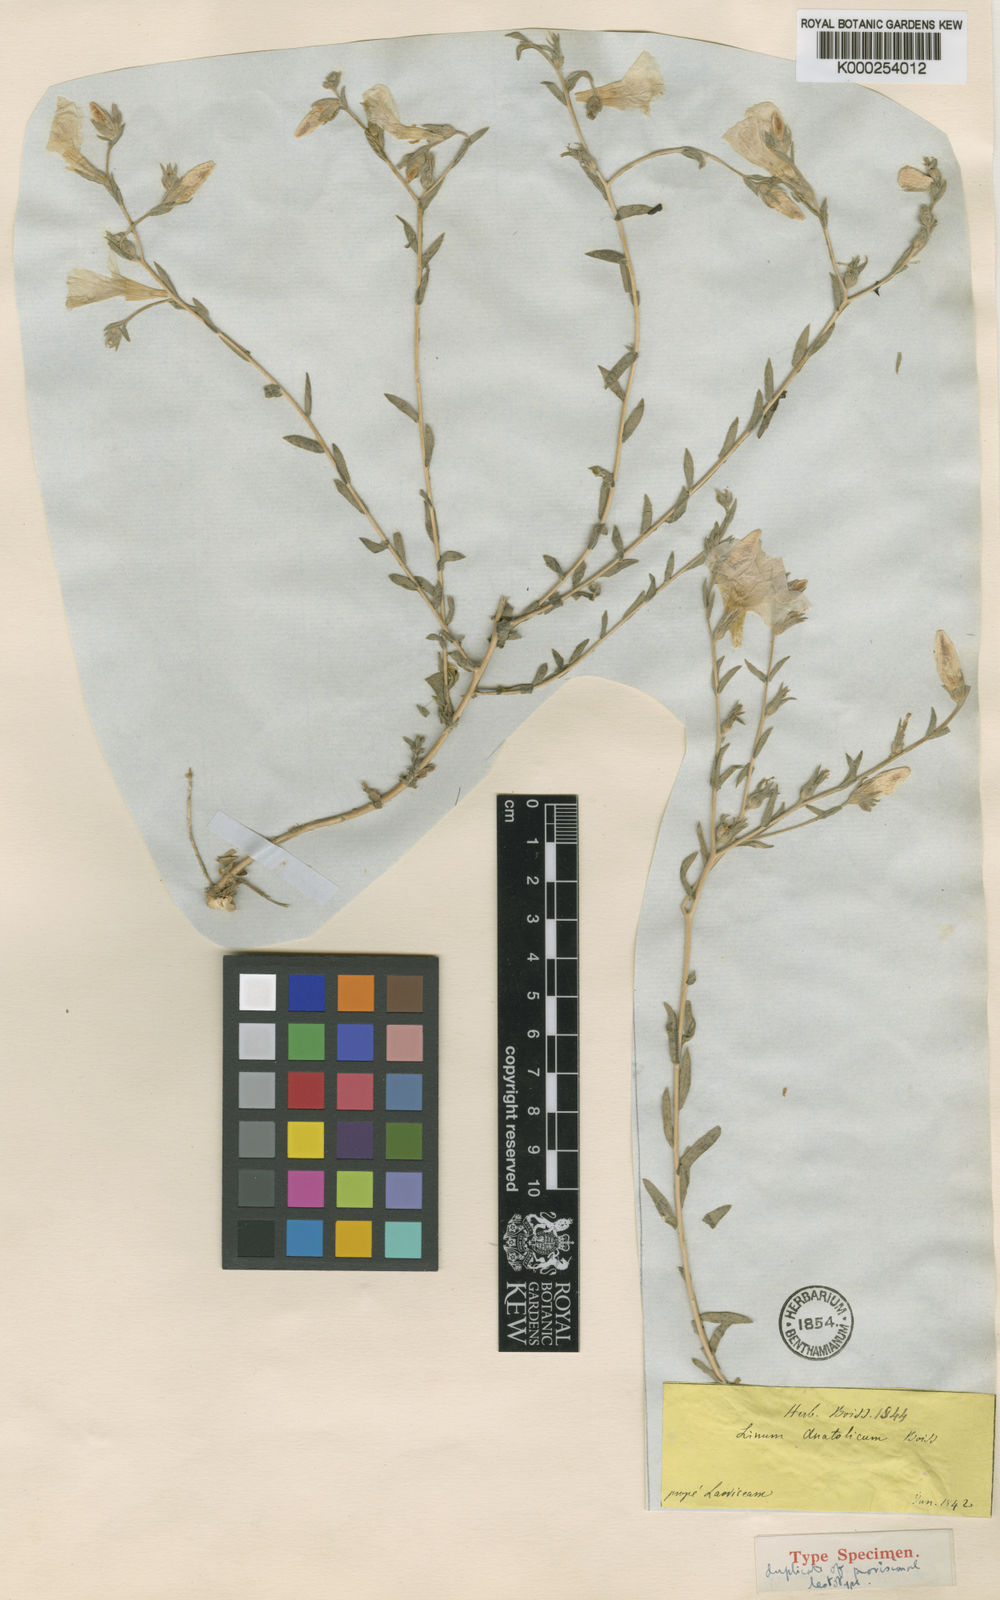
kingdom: Plantae
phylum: Tracheophyta
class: Magnoliopsida
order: Malpighiales
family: Linaceae
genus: Linum
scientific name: Linum hirsutum
